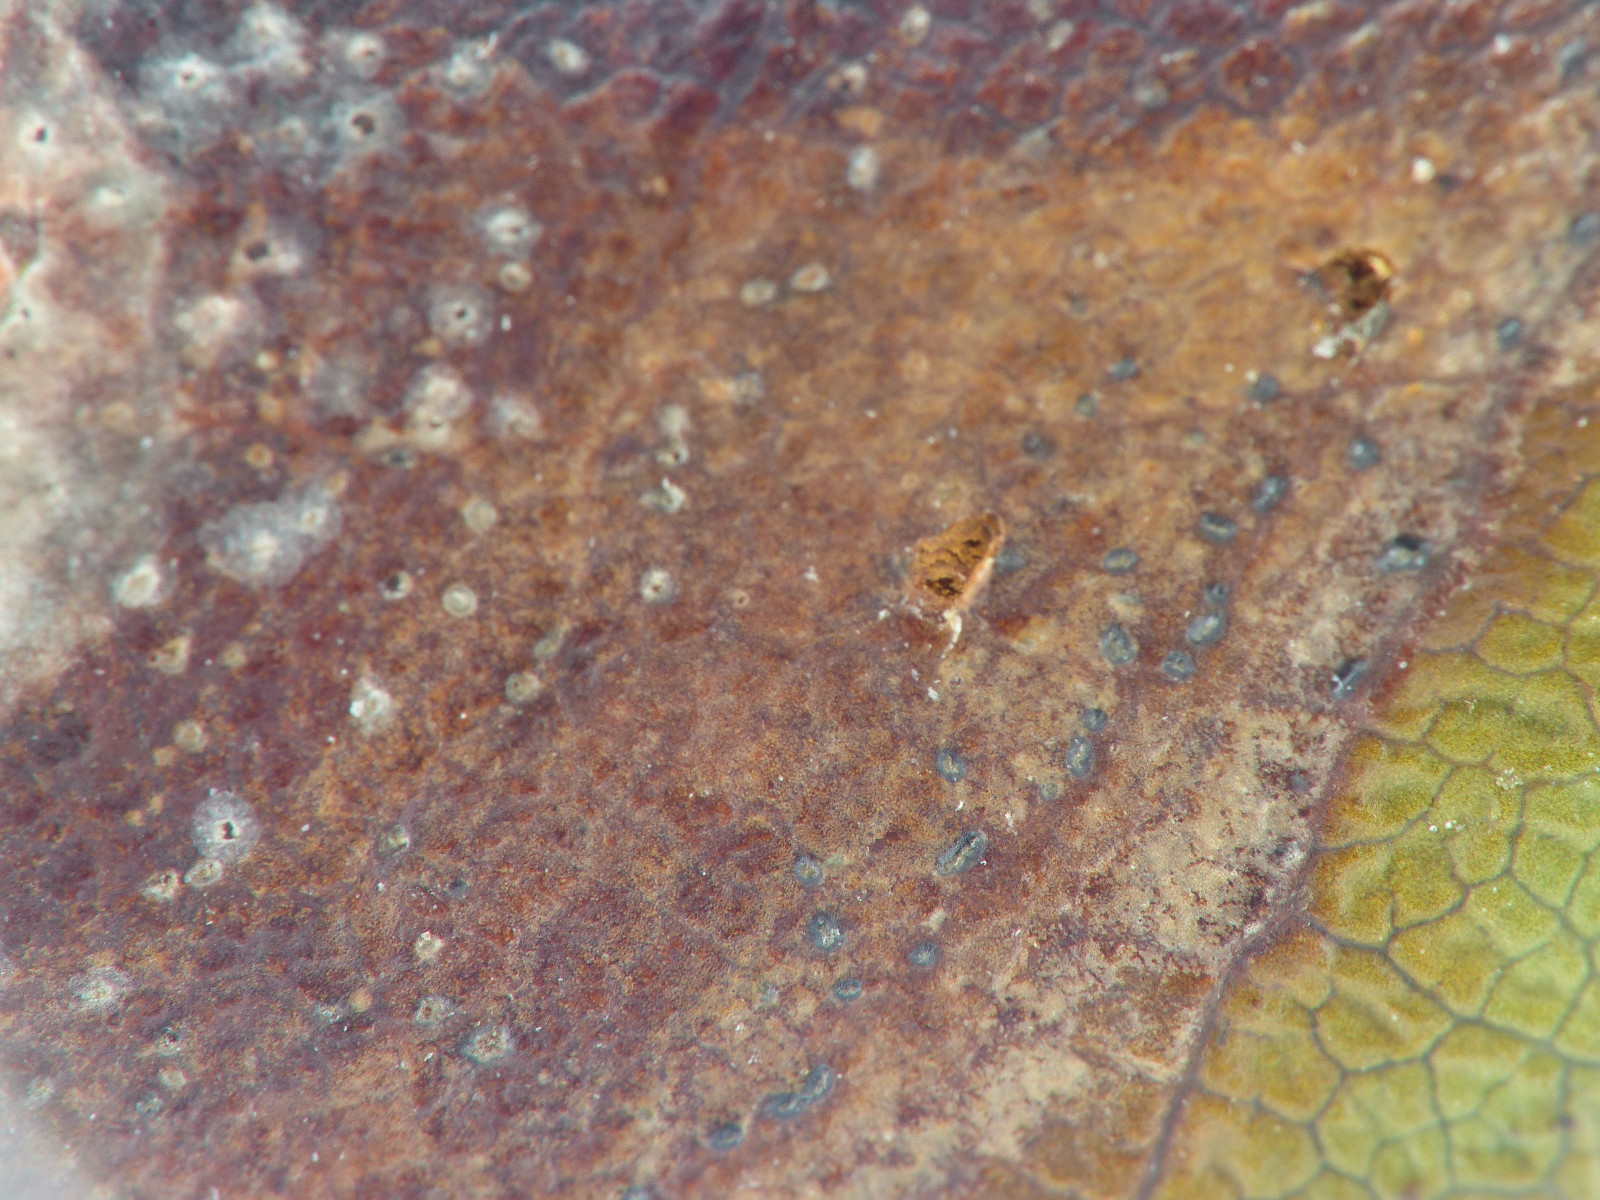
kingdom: Fungi
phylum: Ascomycota
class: Sordariomycetes
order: Glomerellales
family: Glomerellaceae
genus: Colletotrichum
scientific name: Colletotrichum gloeosporioides
